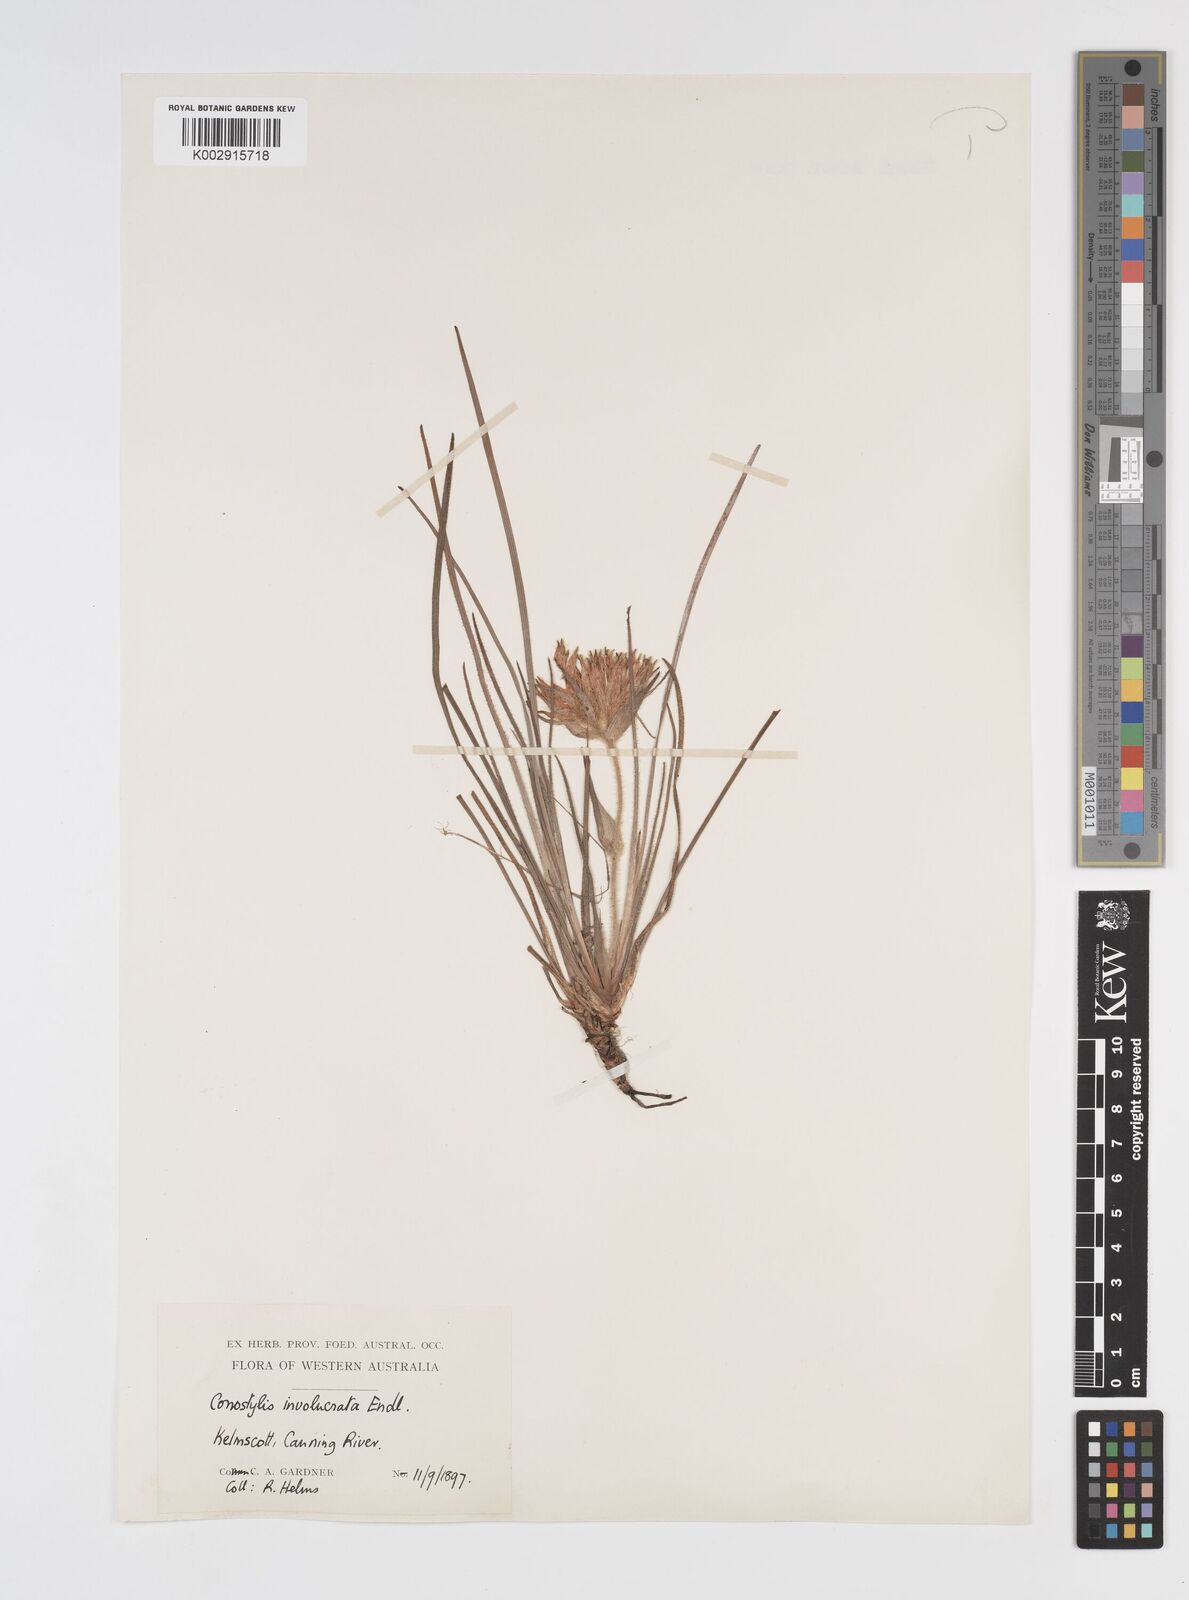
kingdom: Plantae
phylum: Tracheophyta
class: Liliopsida
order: Commelinales
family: Haemodoraceae
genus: Conostylis
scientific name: Conostylis juncea
